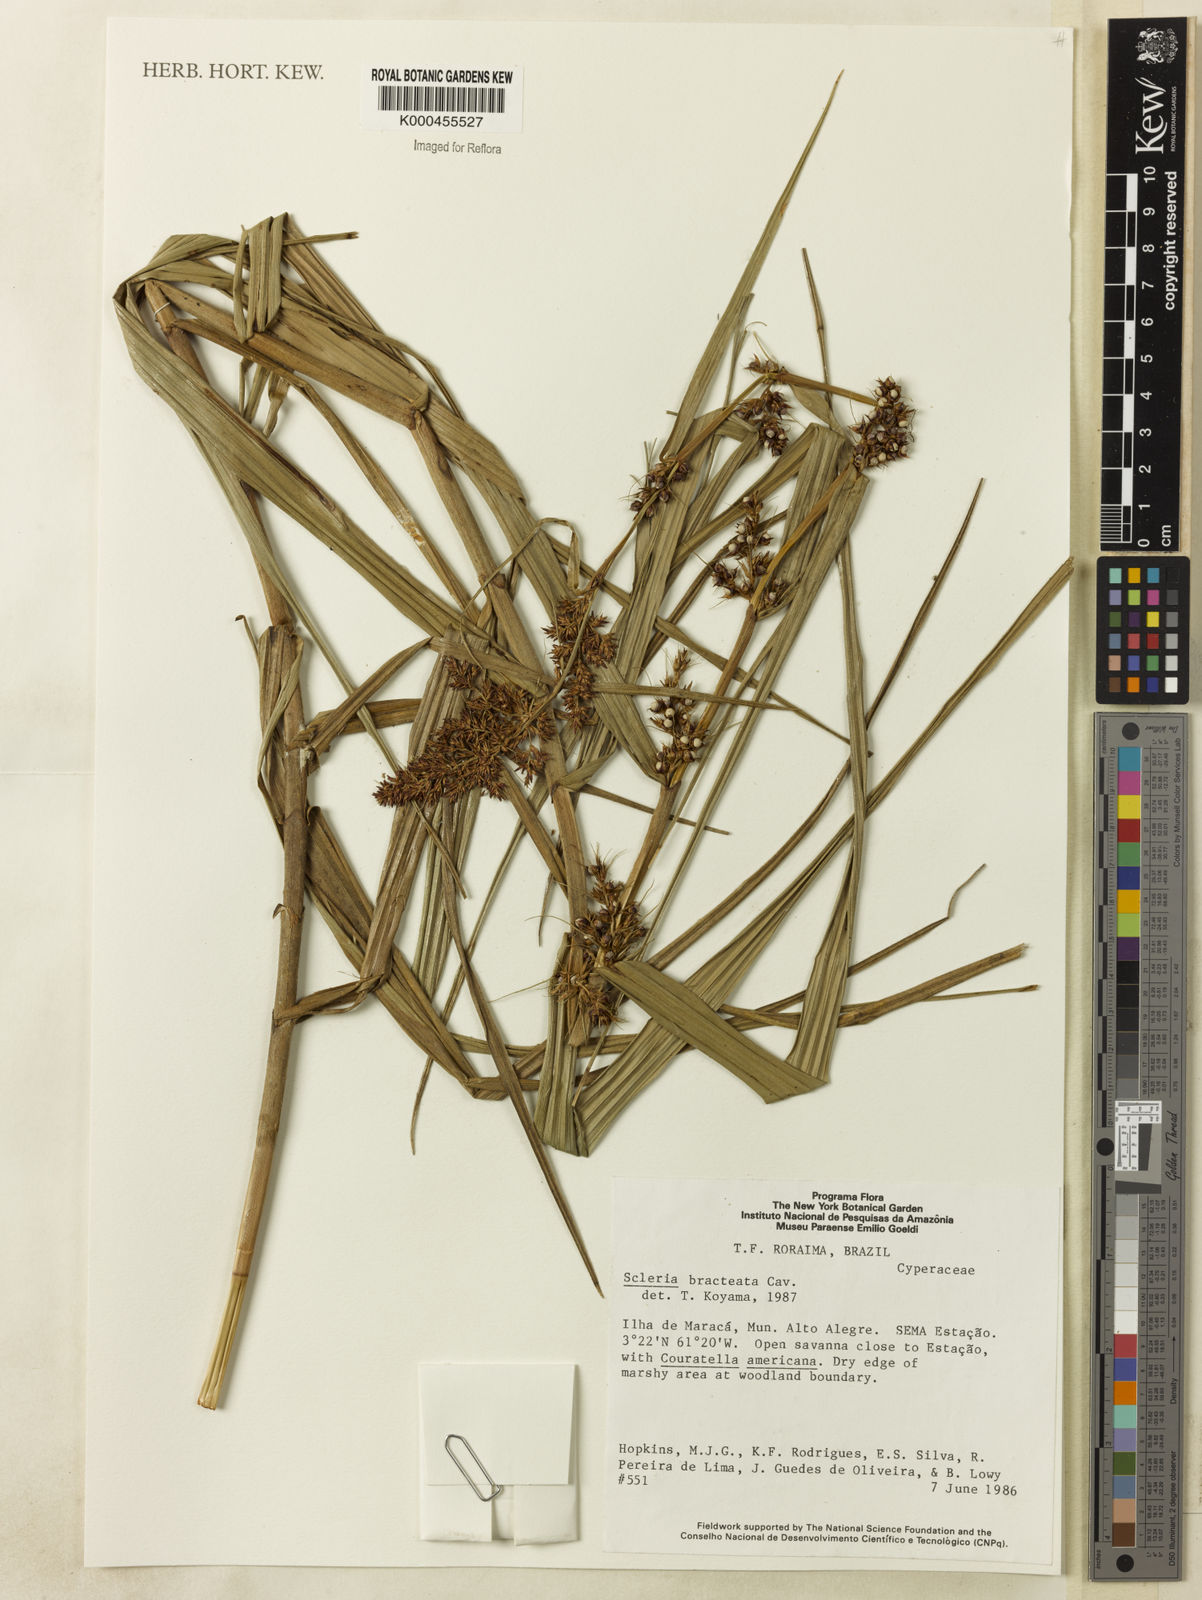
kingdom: Plantae
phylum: Tracheophyta
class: Liliopsida
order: Poales
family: Cyperaceae
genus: Scleria
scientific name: Scleria bracteata
